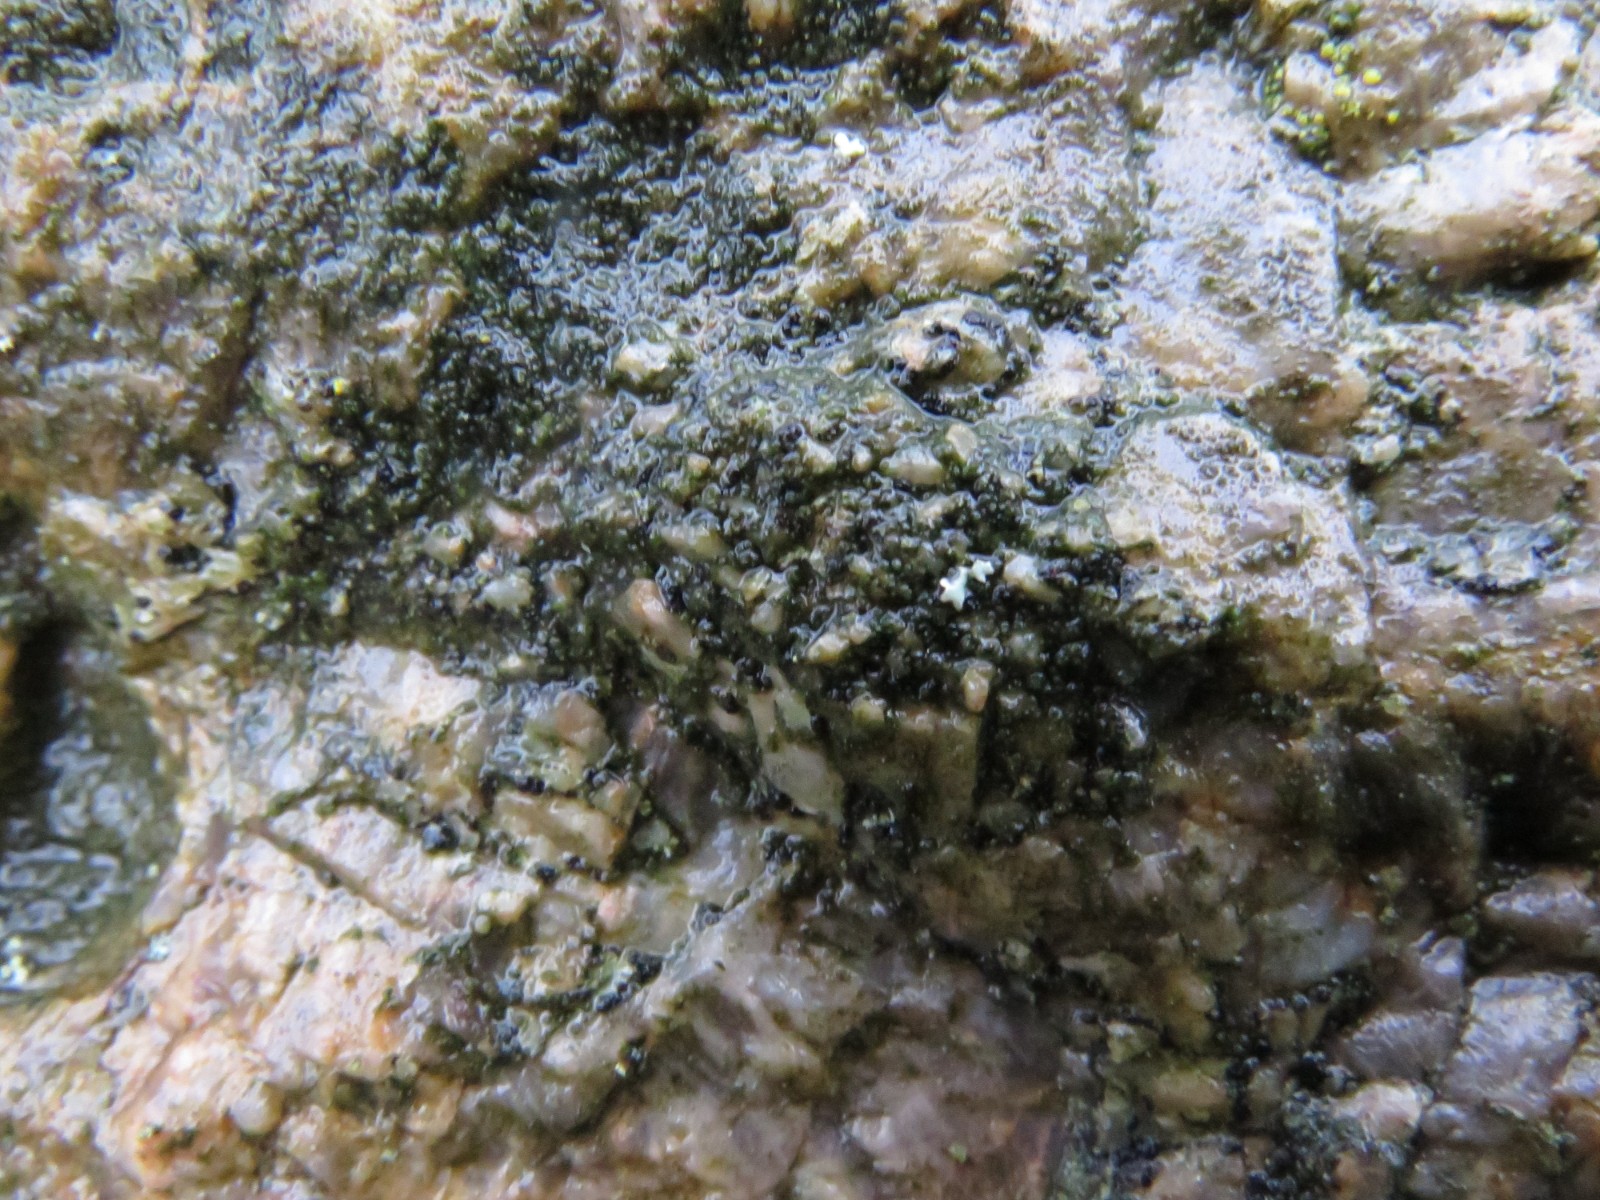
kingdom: Fungi
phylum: Ascomycota
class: Lecanoromycetes
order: Acarosporales
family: Acarosporaceae
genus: Acarospora
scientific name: Acarospora privigna
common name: sort foldekantlav
